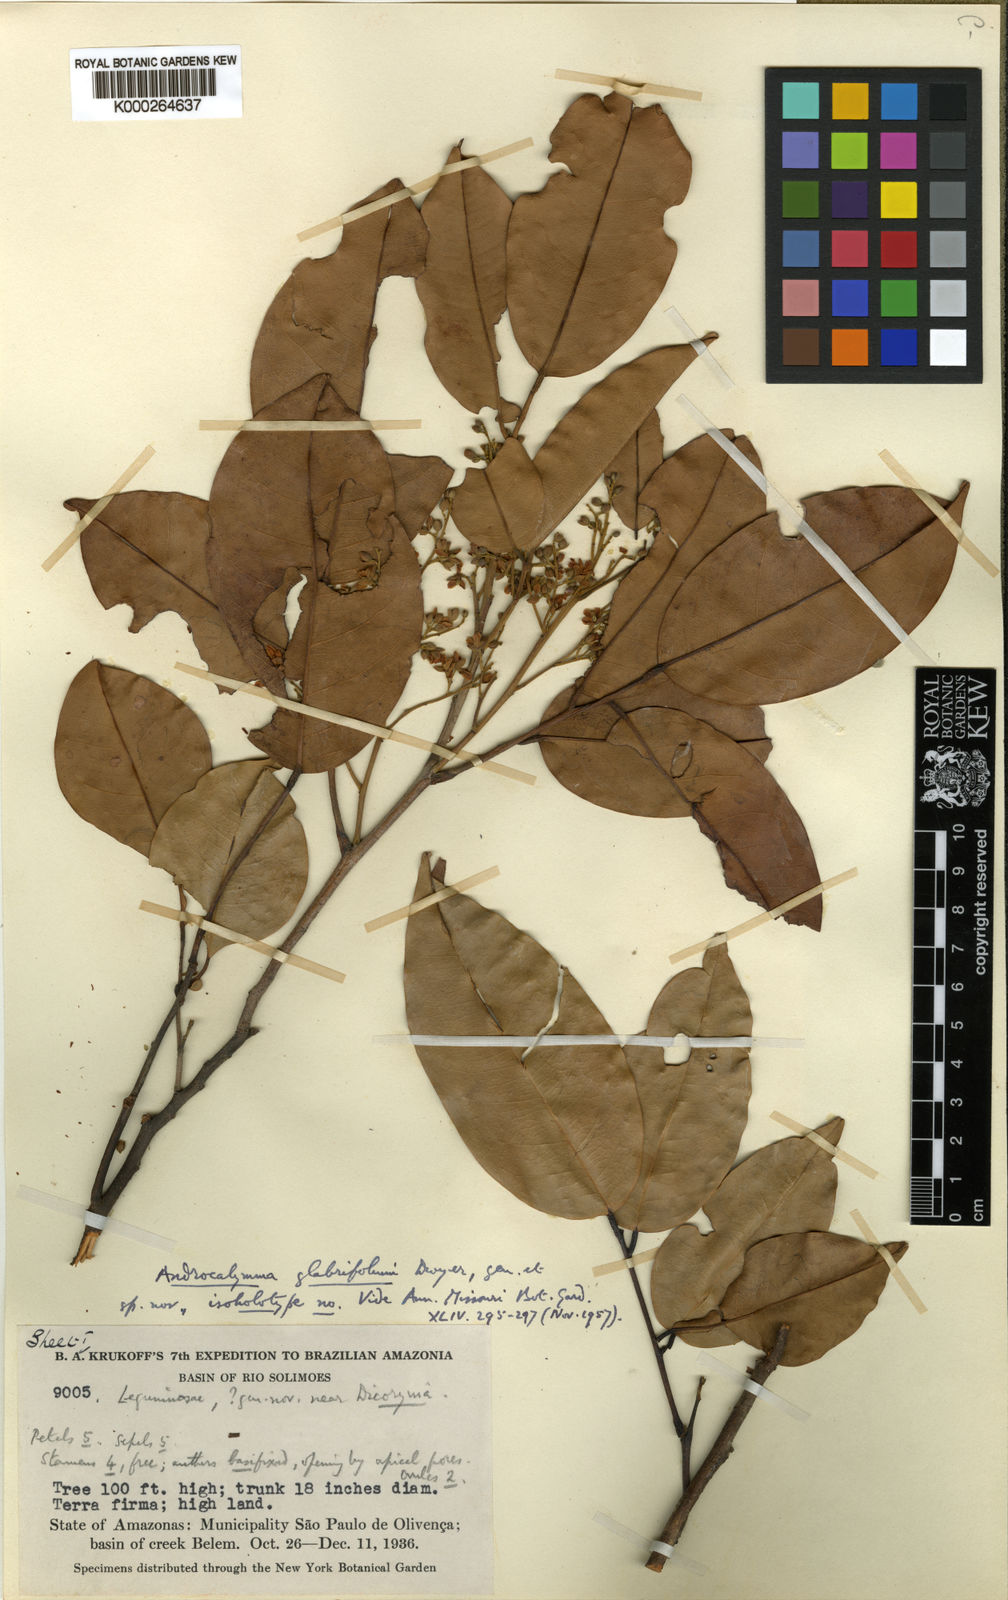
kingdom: Plantae
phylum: Tracheophyta
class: Magnoliopsida
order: Fabales
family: Fabaceae
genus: Androcalymma
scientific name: Androcalymma glabrifolium
